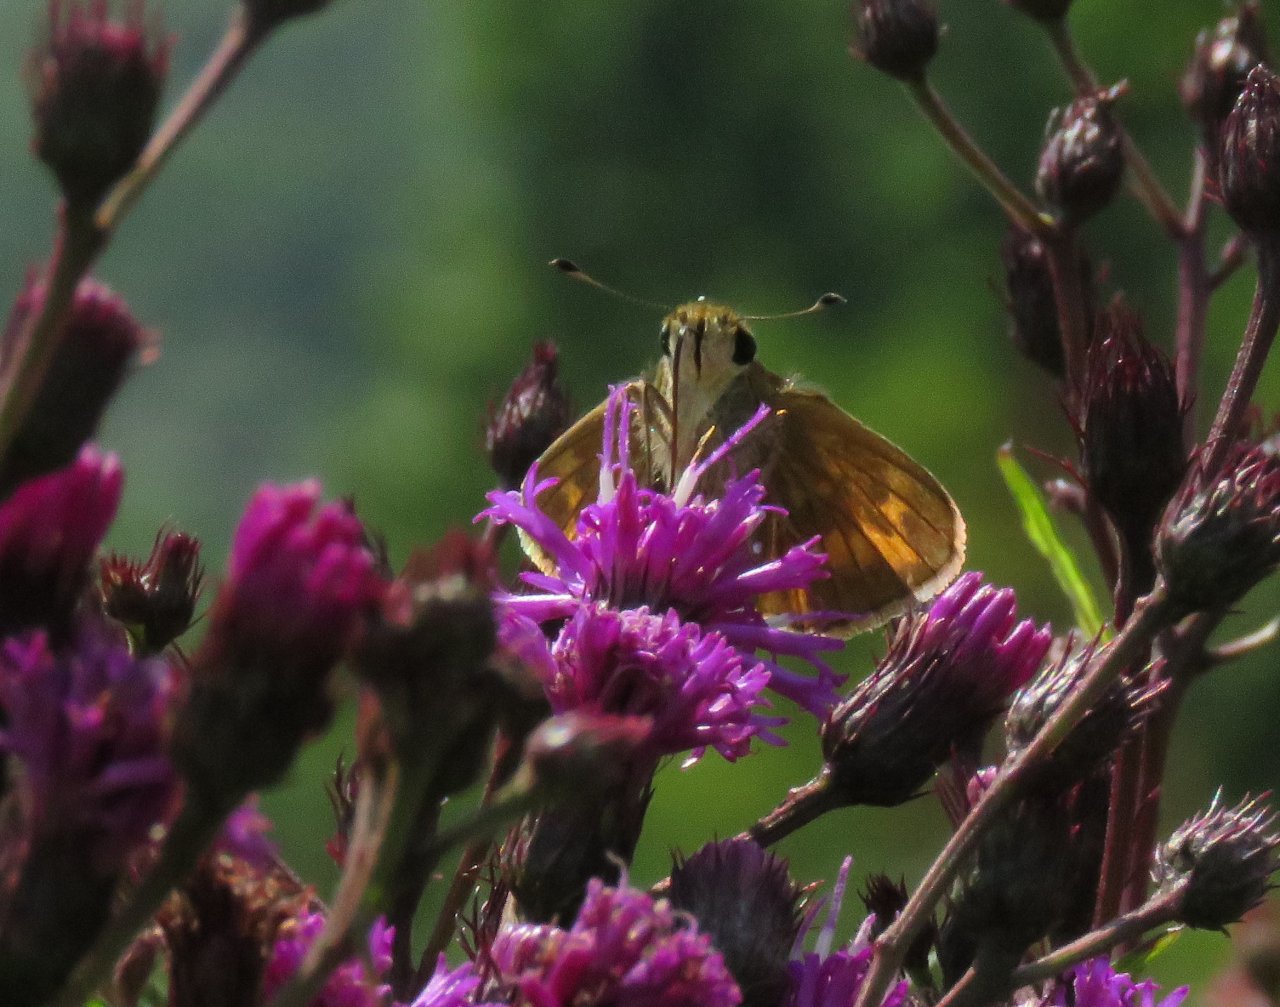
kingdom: Animalia
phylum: Arthropoda
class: Insecta
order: Lepidoptera
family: Hesperiidae
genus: Polites
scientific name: Polites coras
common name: Peck's Skipper
